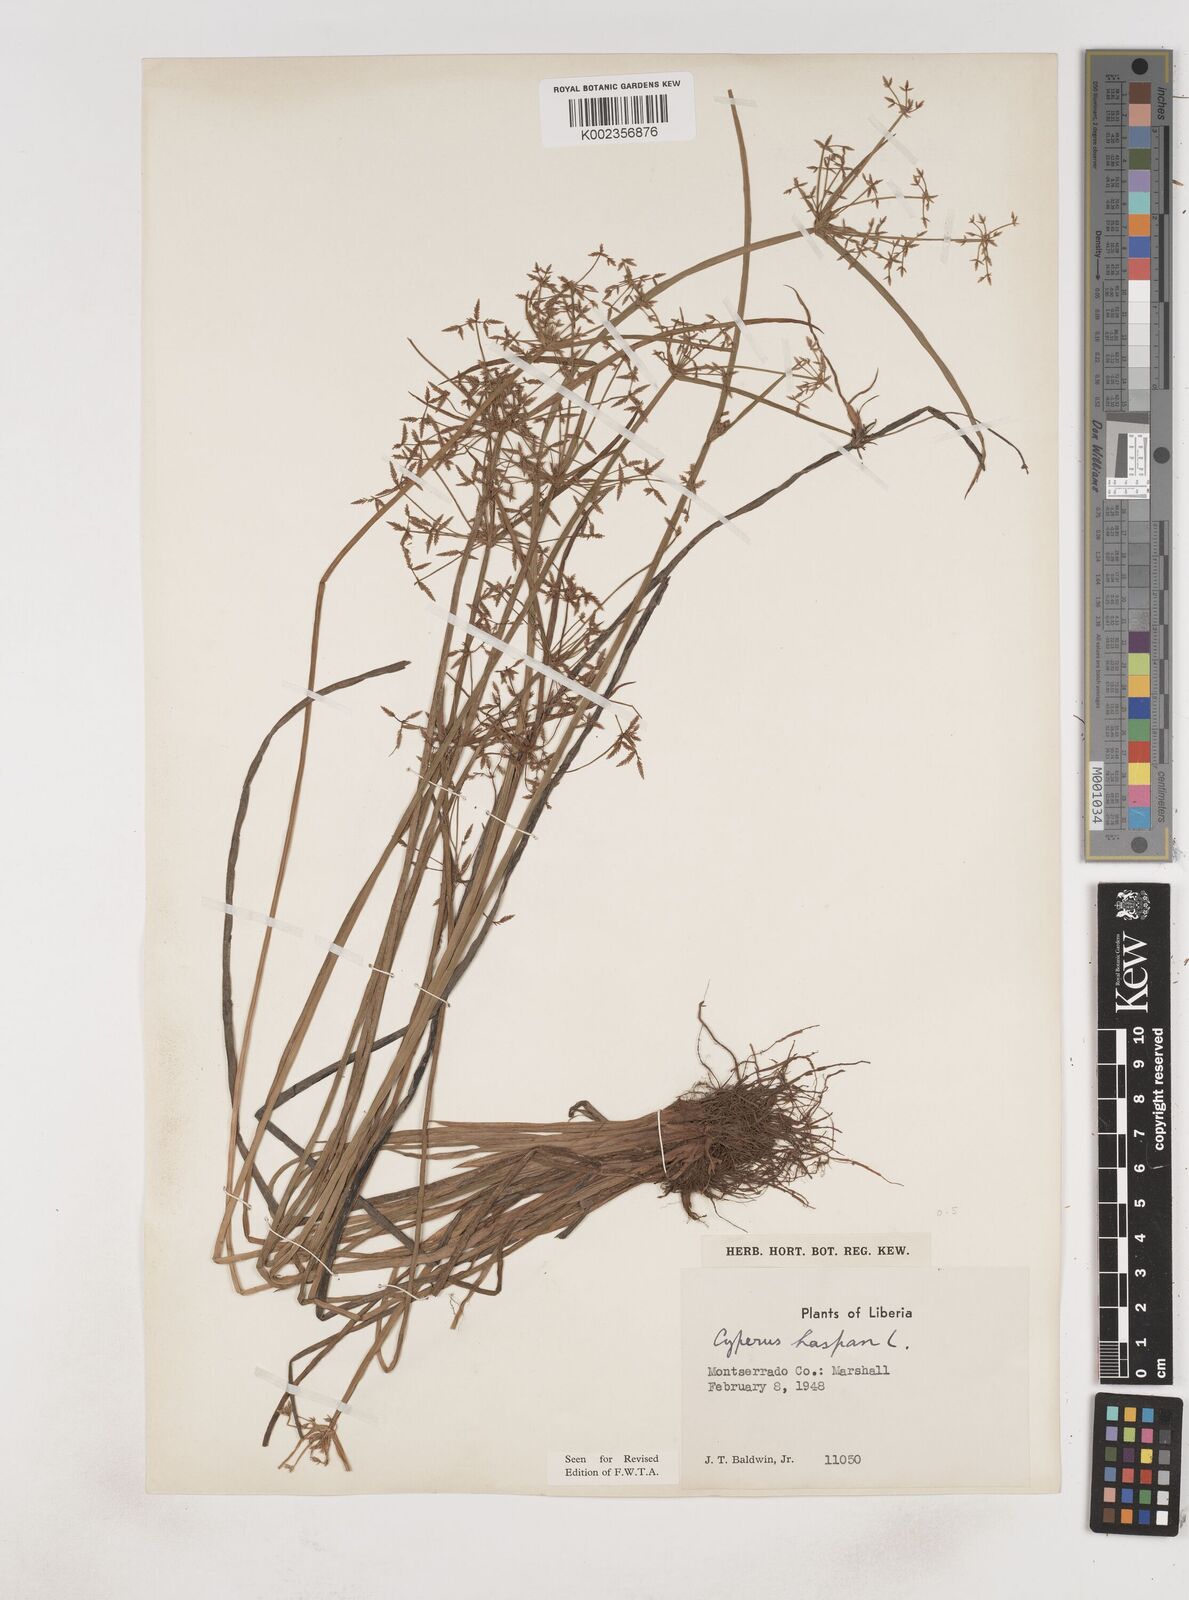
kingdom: Plantae
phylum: Tracheophyta
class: Liliopsida
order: Poales
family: Cyperaceae
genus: Cyperus
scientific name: Cyperus haspan
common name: Haspan flatsedge
